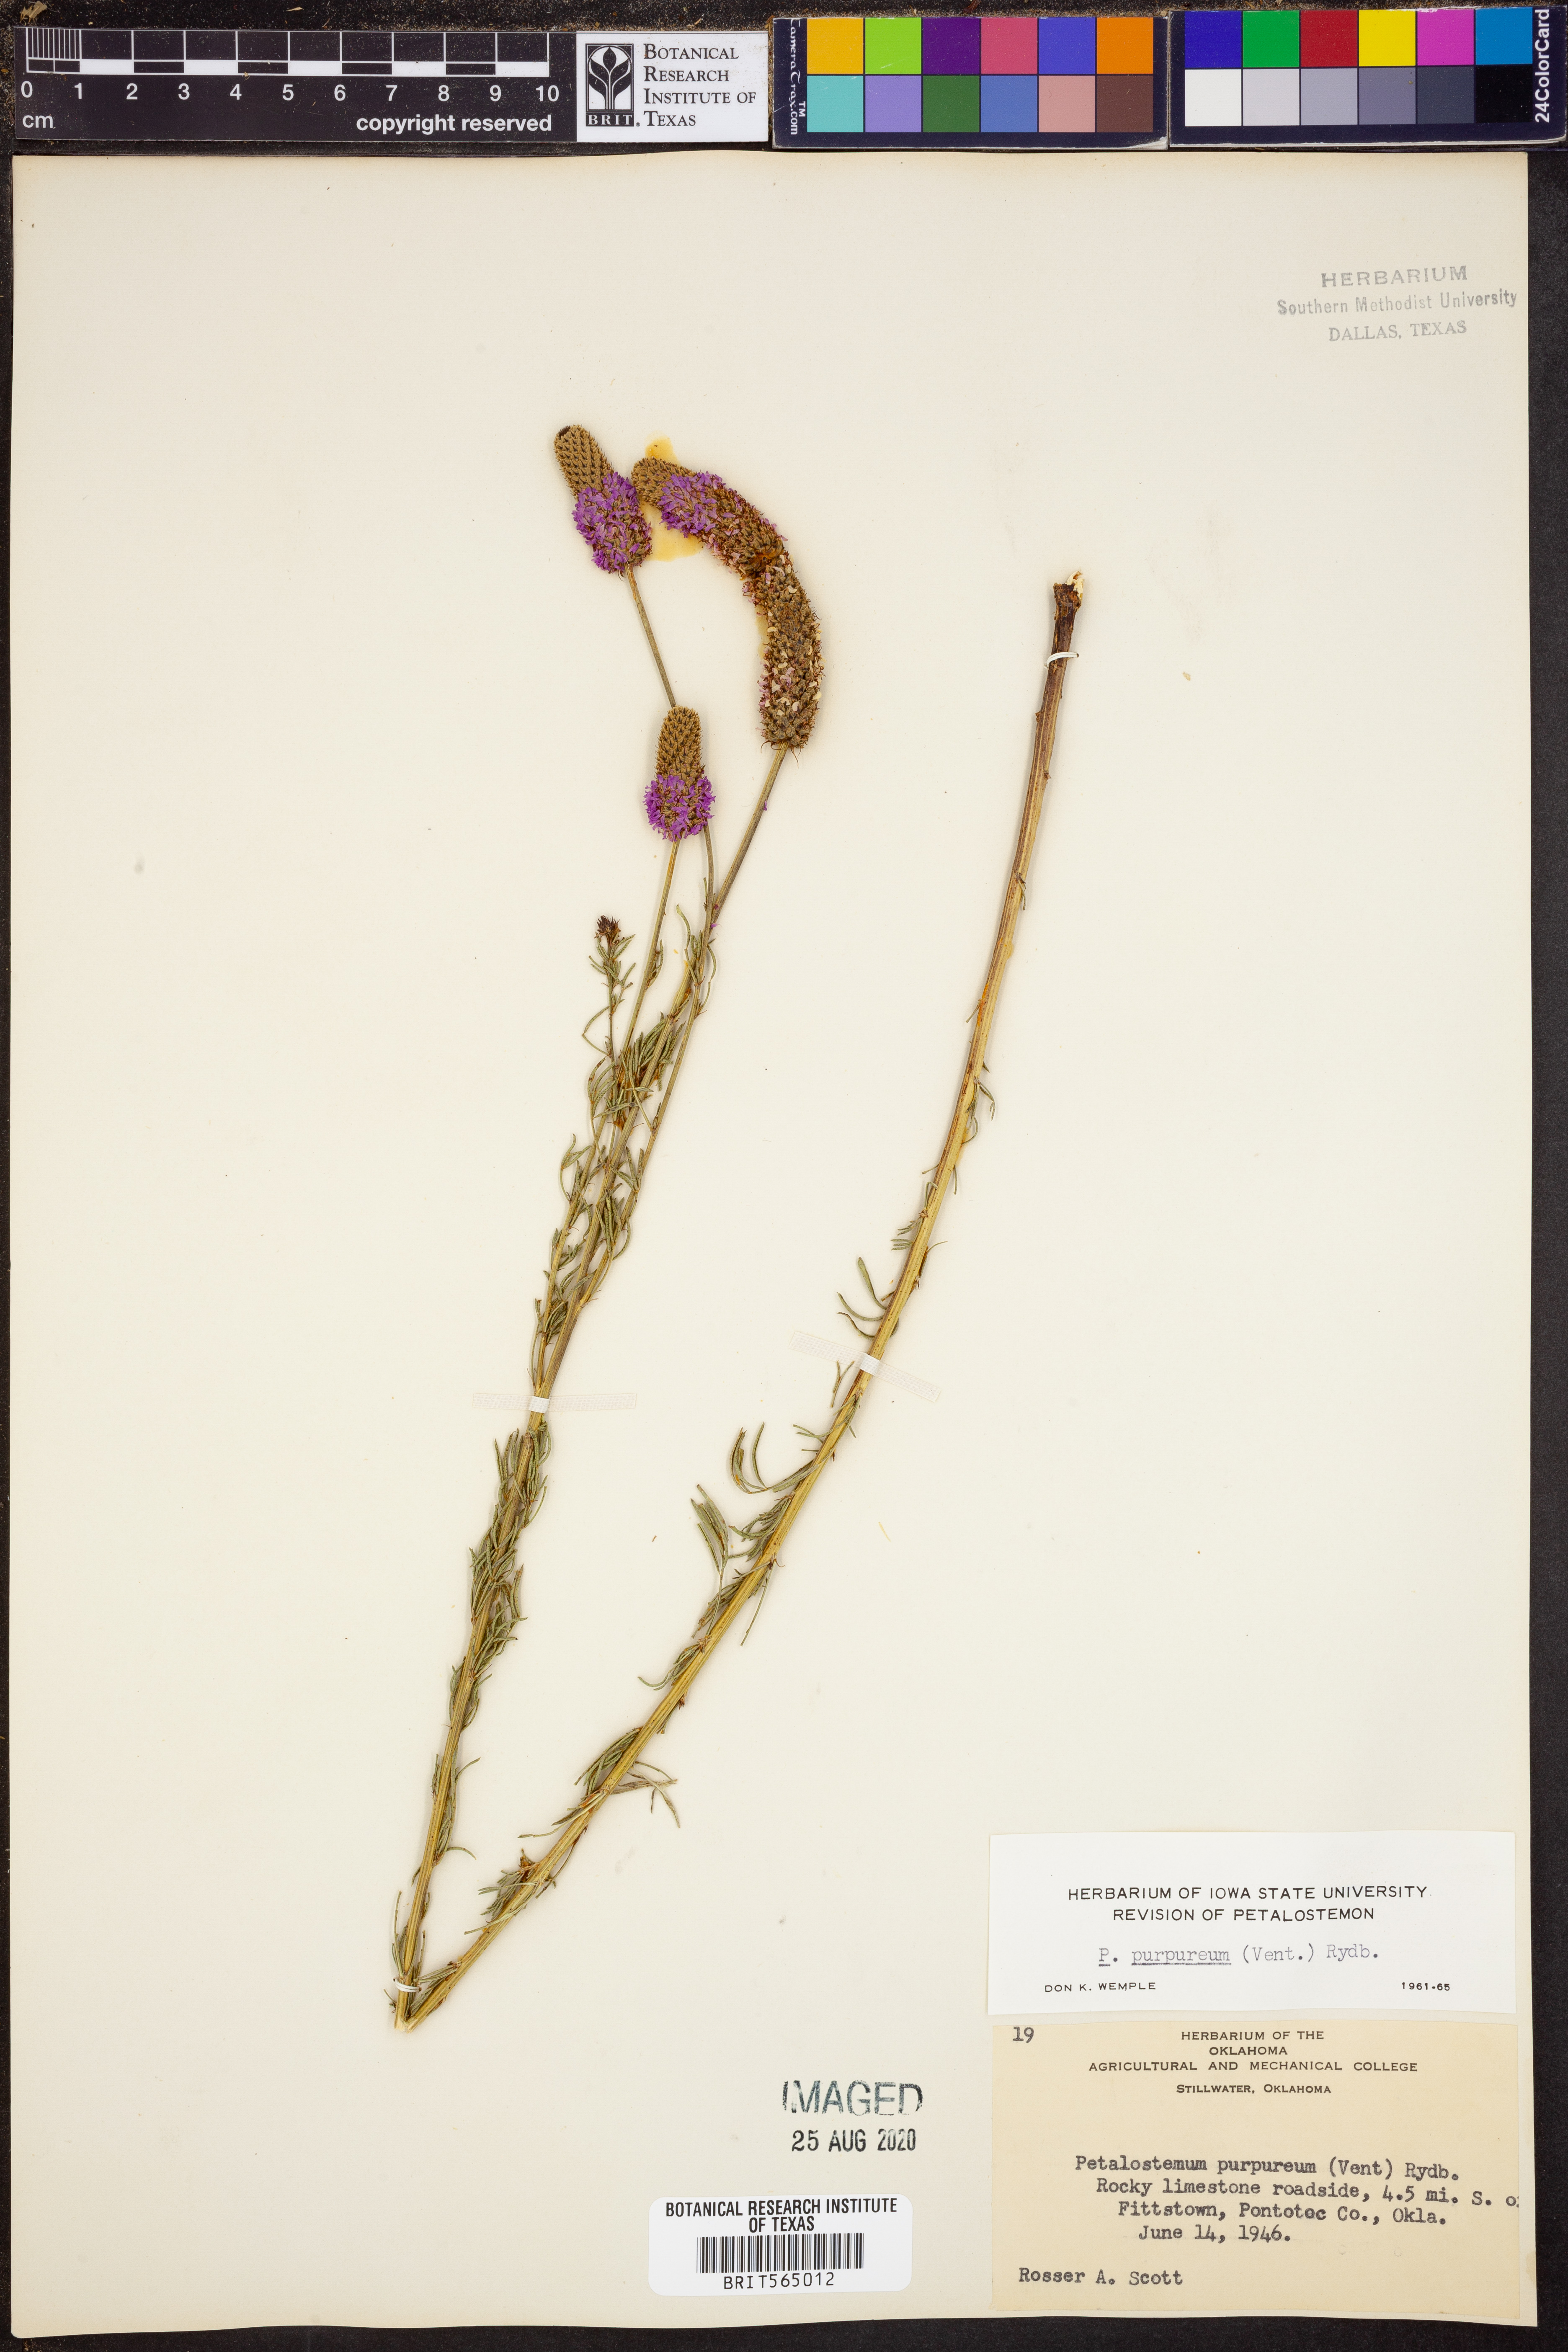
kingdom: Plantae
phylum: Tracheophyta
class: Magnoliopsida
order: Fabales
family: Fabaceae
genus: Dalea
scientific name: Dalea purpurea
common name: Purple prairie-clover
